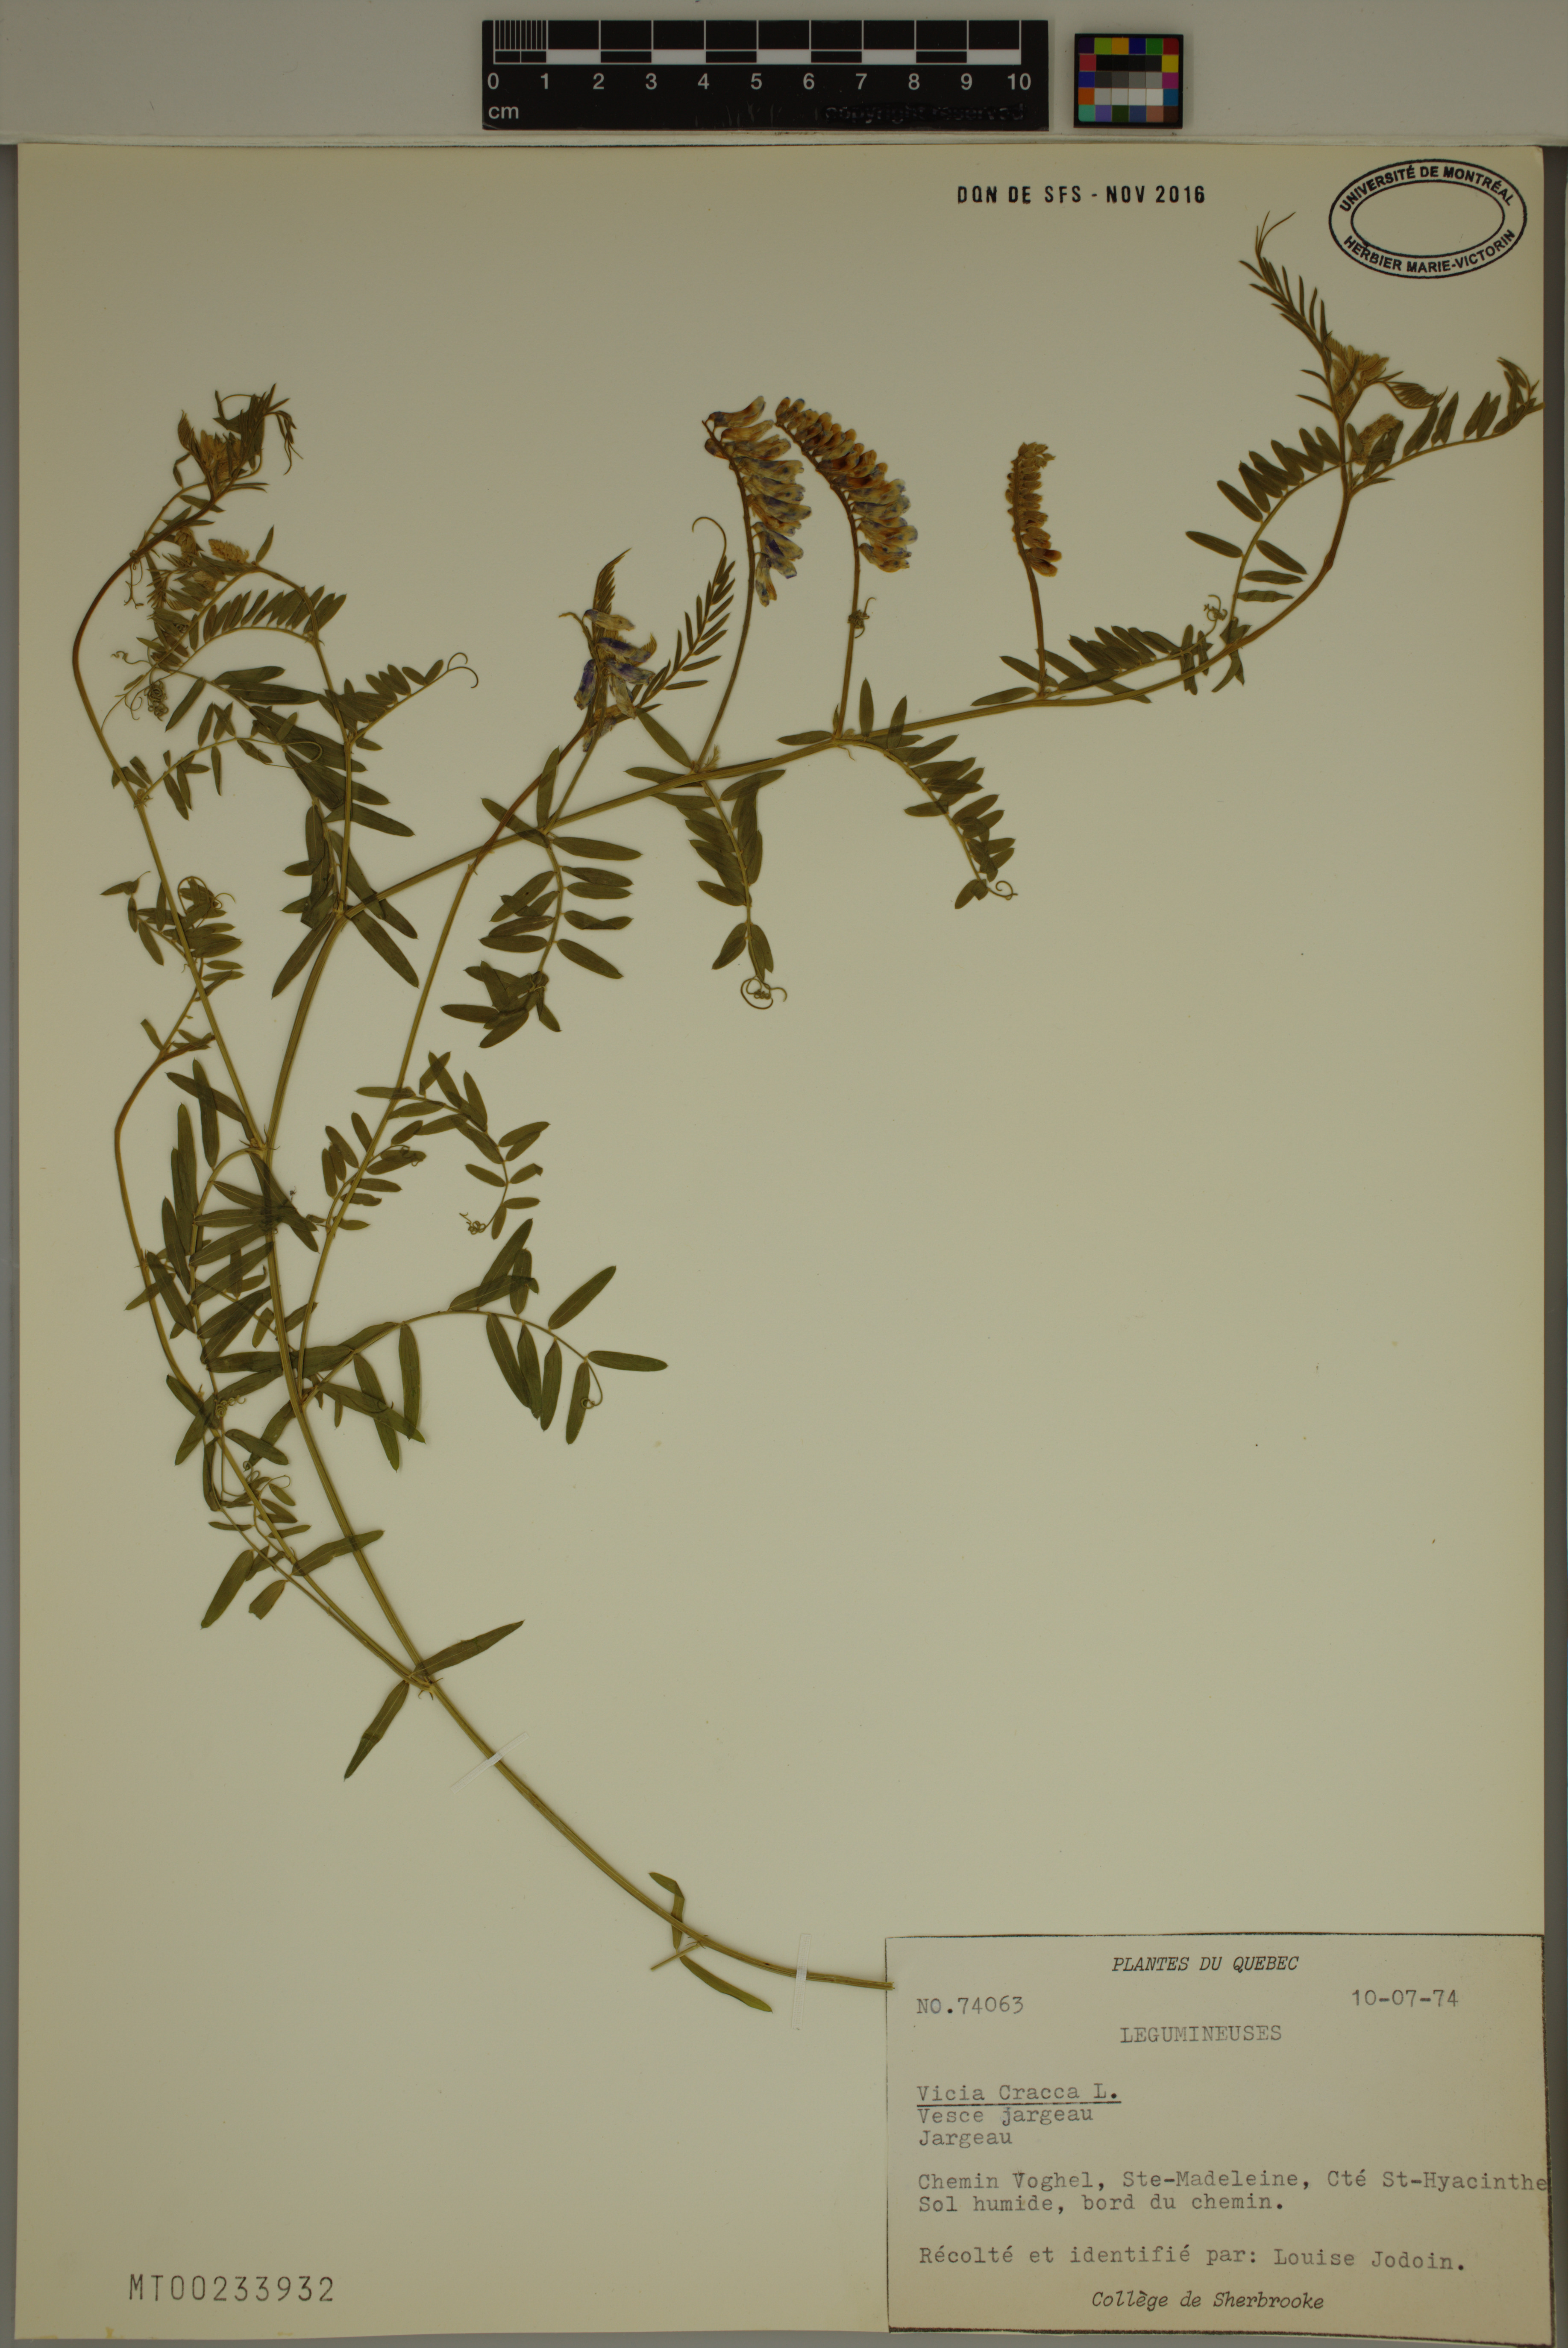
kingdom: Plantae
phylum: Tracheophyta
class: Magnoliopsida
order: Fabales
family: Fabaceae
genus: Vicia
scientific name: Vicia cracca
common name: Bird vetch
